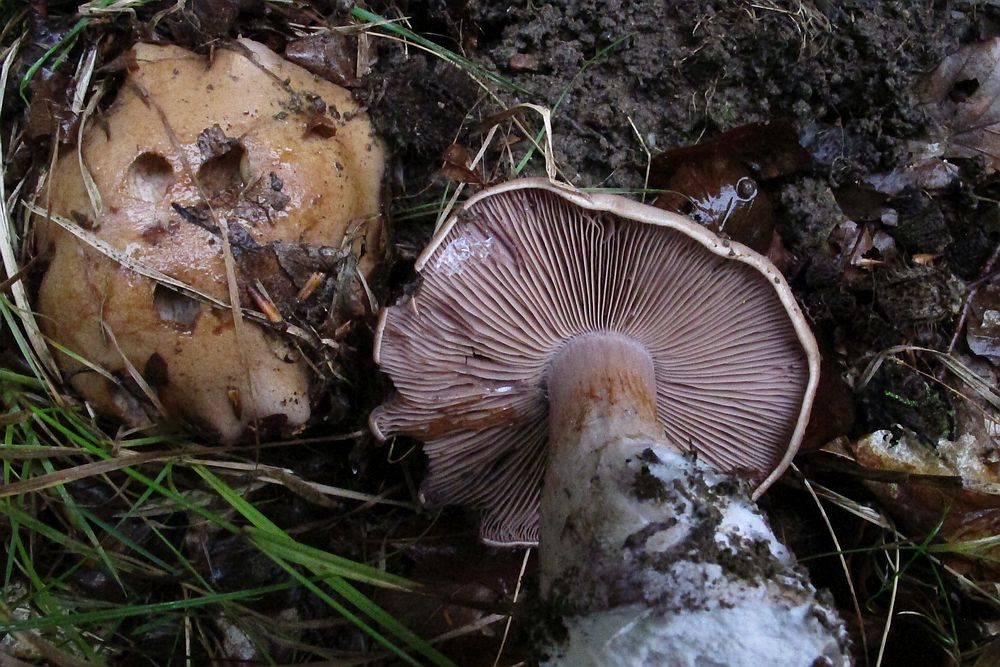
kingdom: Fungi
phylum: Basidiomycota
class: Agaricomycetes
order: Agaricales
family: Cortinariaceae
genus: Cortinarius
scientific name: Cortinarius anserinus
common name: bøge-slørhat
